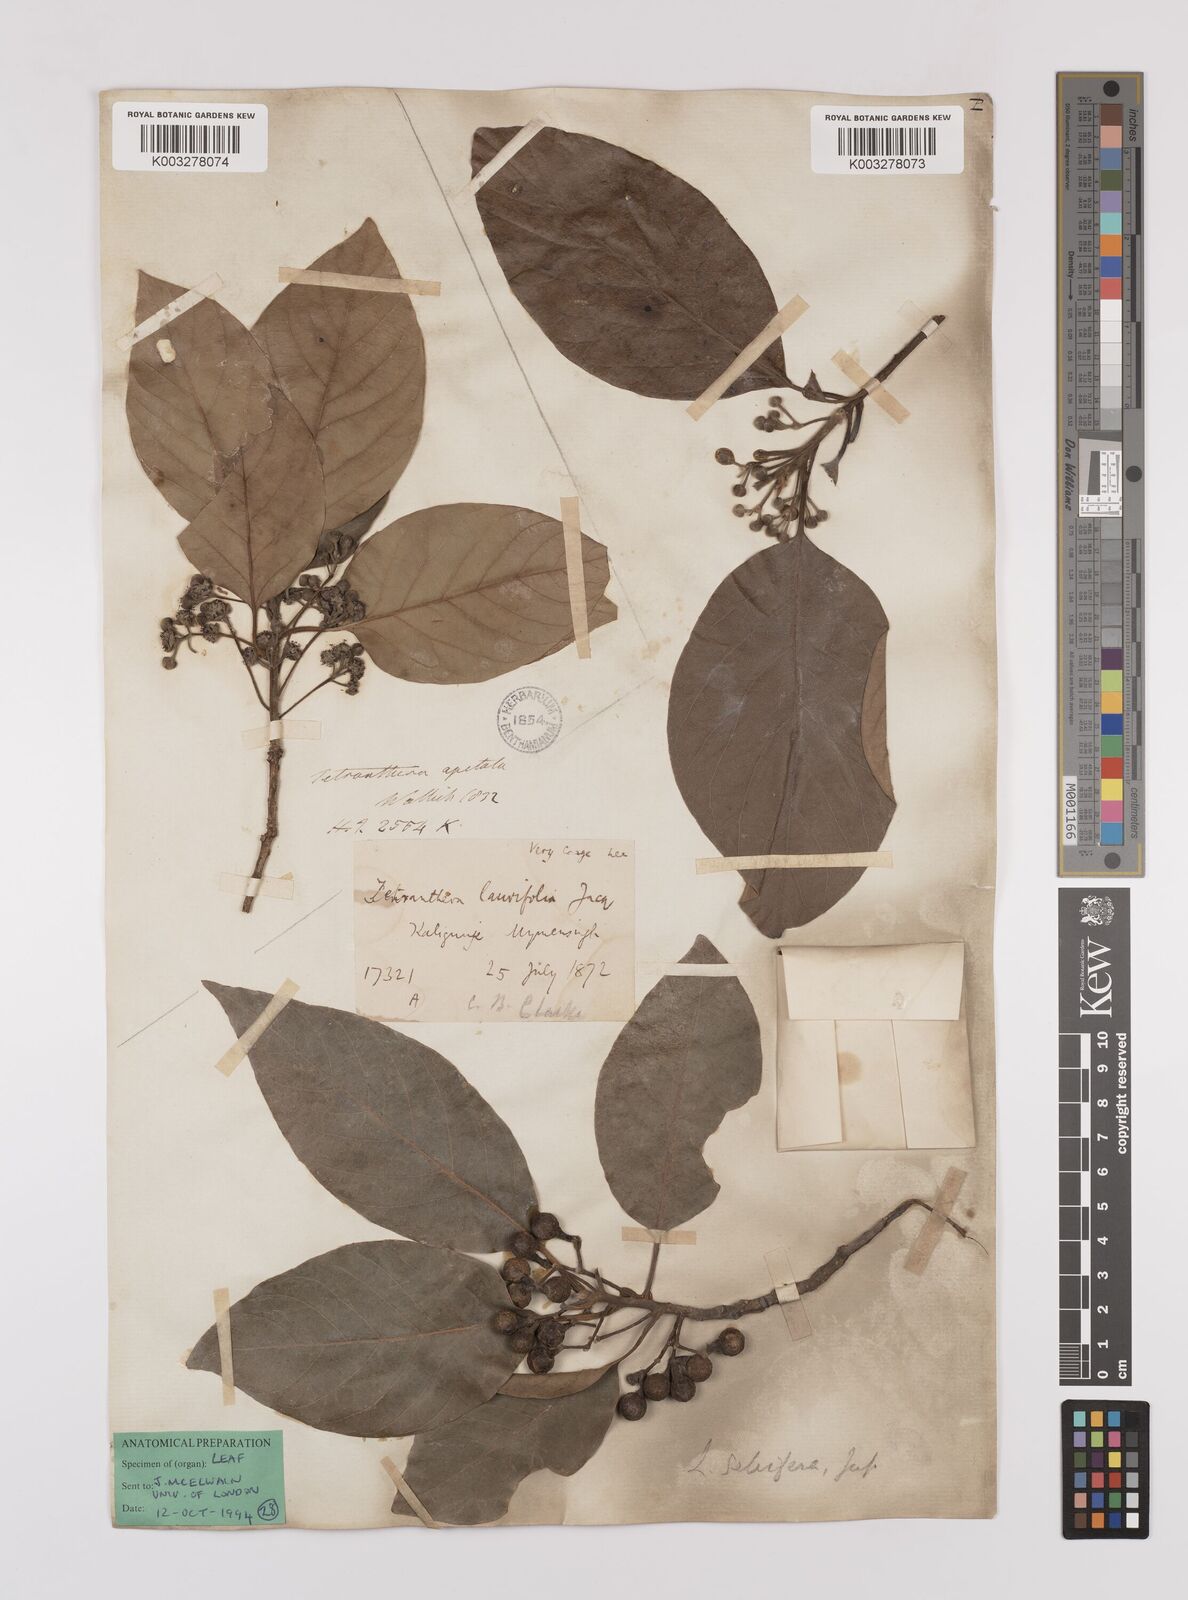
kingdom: Plantae
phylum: Tracheophyta
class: Magnoliopsida
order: Laurales
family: Lauraceae
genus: Litsea
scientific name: Litsea glutinosa
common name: Indian-laurel
